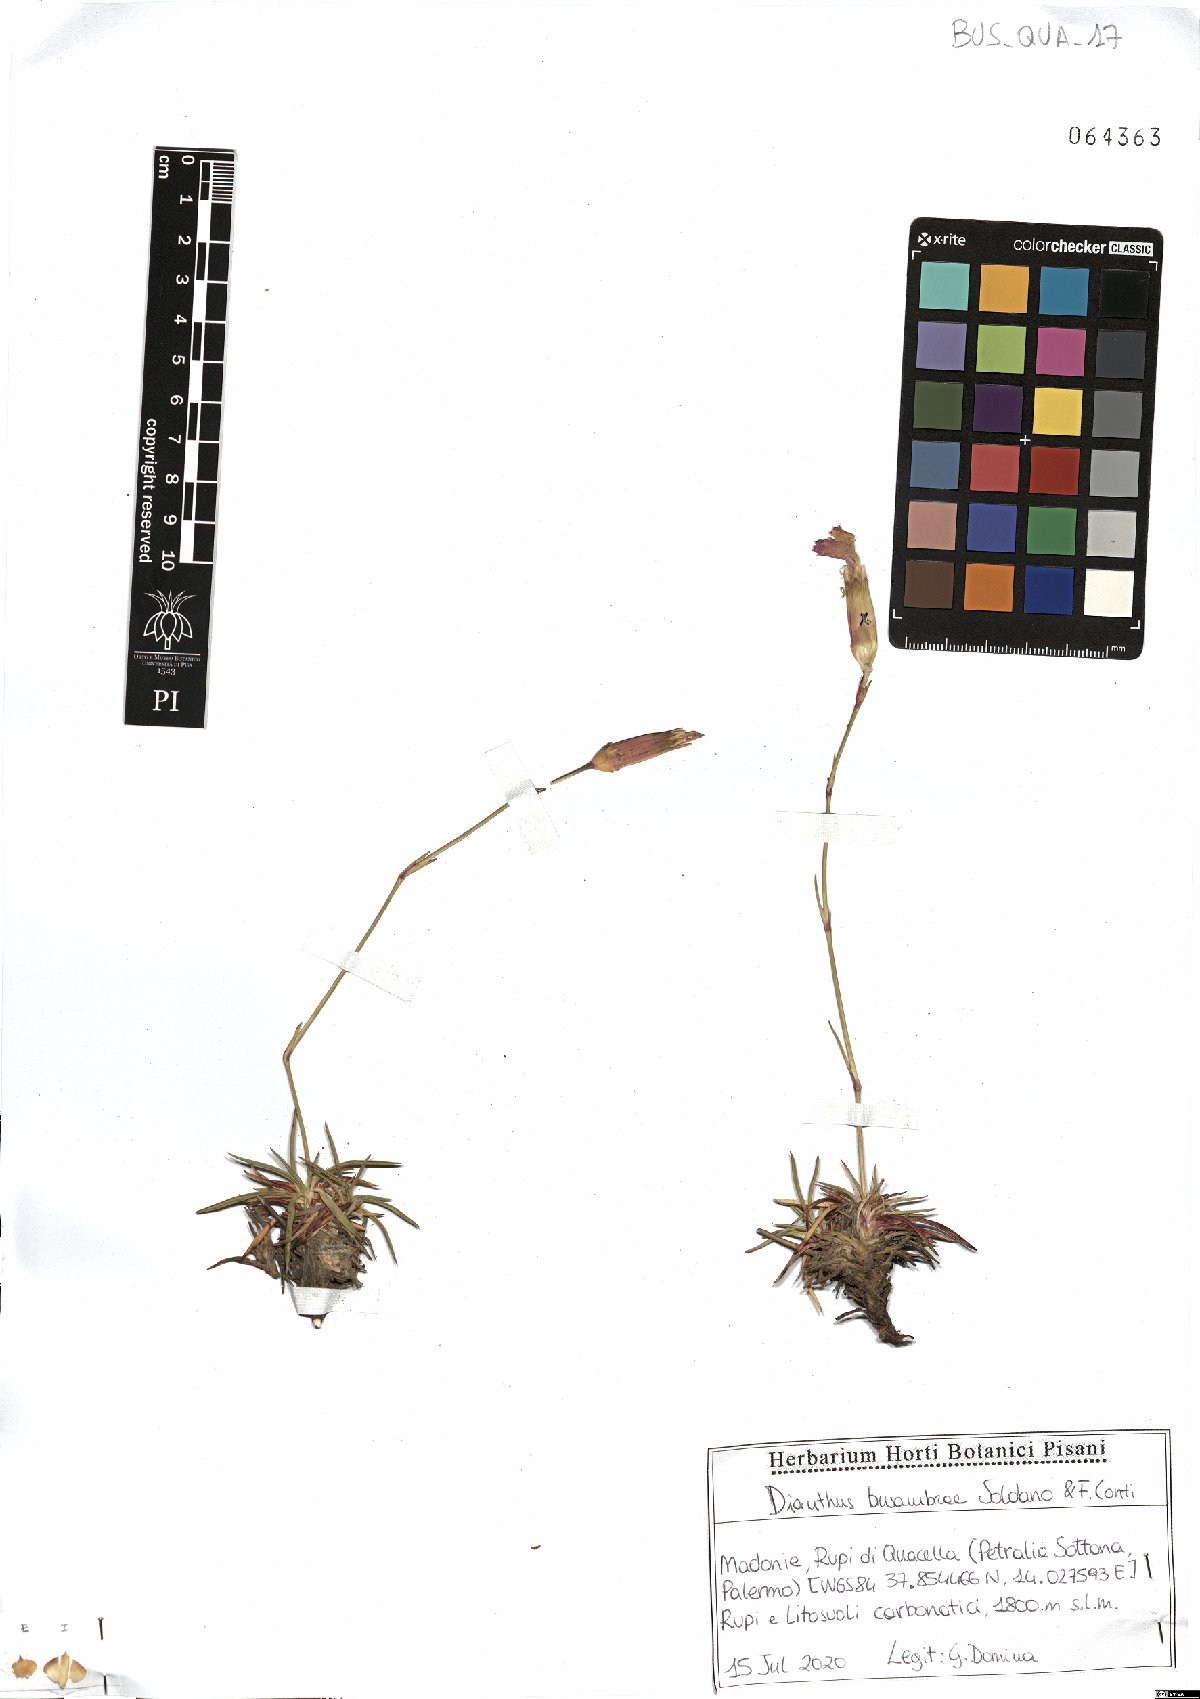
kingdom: Plantae
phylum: Tracheophyta
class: Magnoliopsida
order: Caryophyllales
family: Caryophyllaceae
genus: Dianthus
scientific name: Dianthus busambrae
